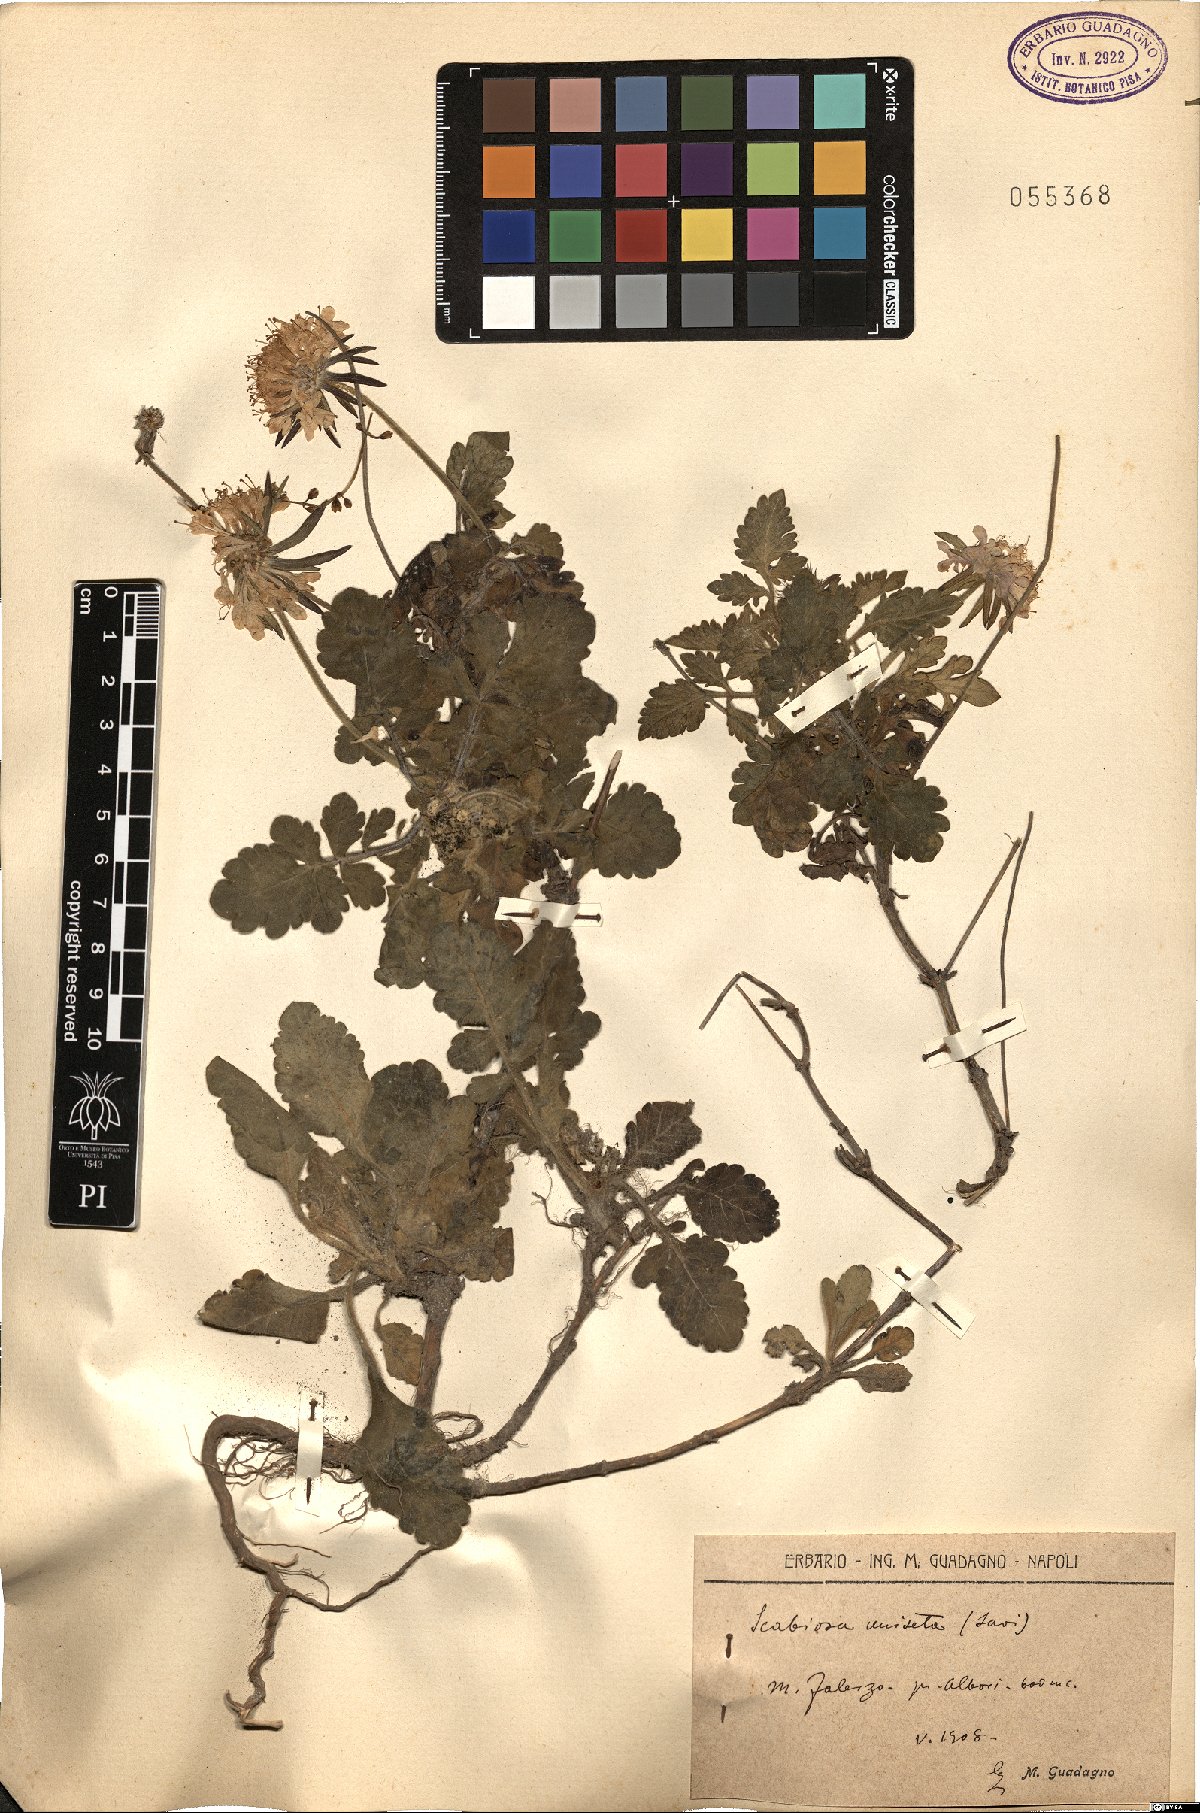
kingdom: Plantae
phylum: Tracheophyta
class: Magnoliopsida
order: Dipsacales
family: Caprifoliaceae
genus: Scabiosa
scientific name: Scabiosa columbaria
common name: Small scabious
